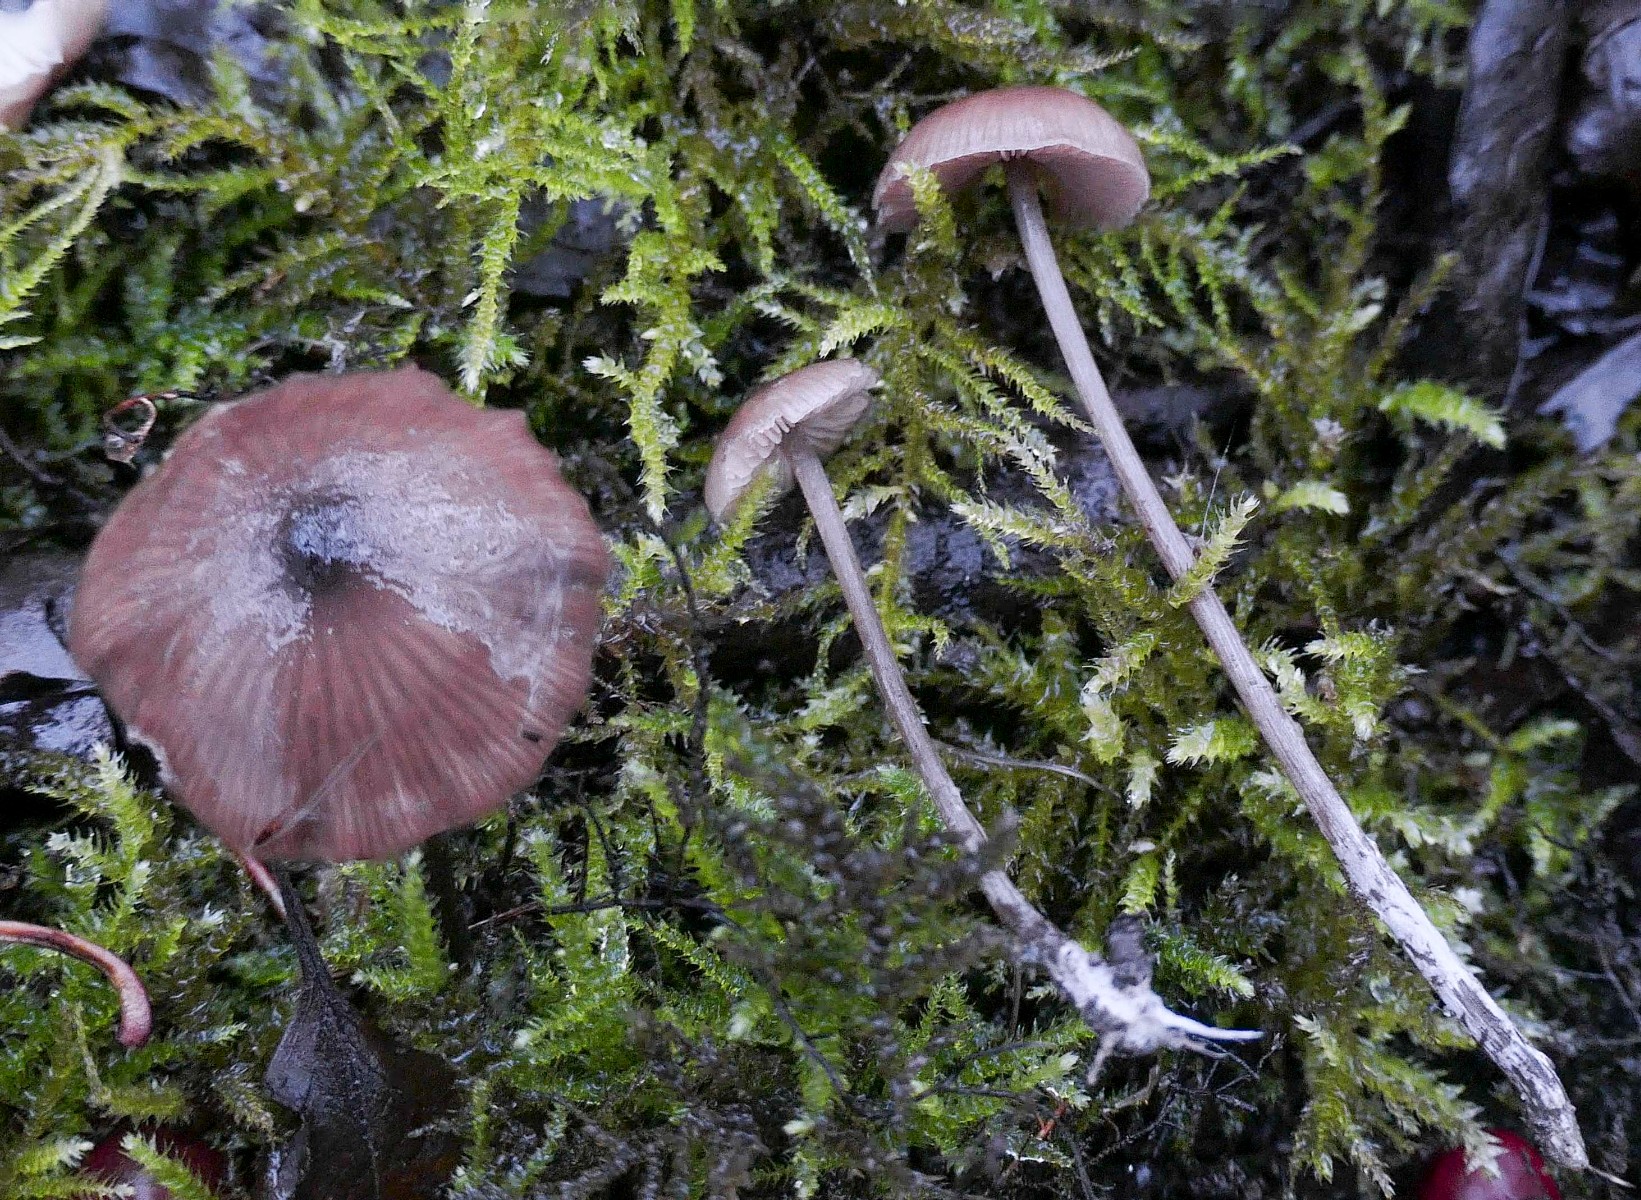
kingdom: Fungi
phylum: Basidiomycota
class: Agaricomycetes
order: Agaricales
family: Entolomataceae
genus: Entoloma
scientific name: Entoloma hebes
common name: krat-rødblad
